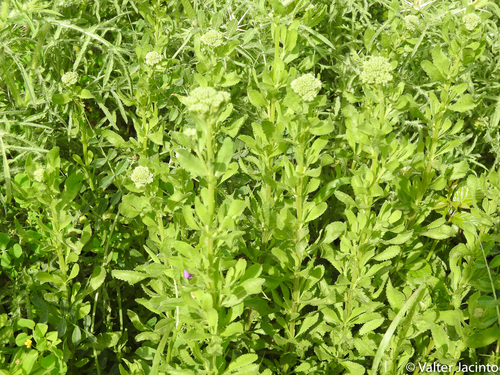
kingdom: Plantae
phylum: Tracheophyta
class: Magnoliopsida
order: Asterales
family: Asteraceae
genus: Achillea
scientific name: Achillea ageratum
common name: Sweet-nancy
